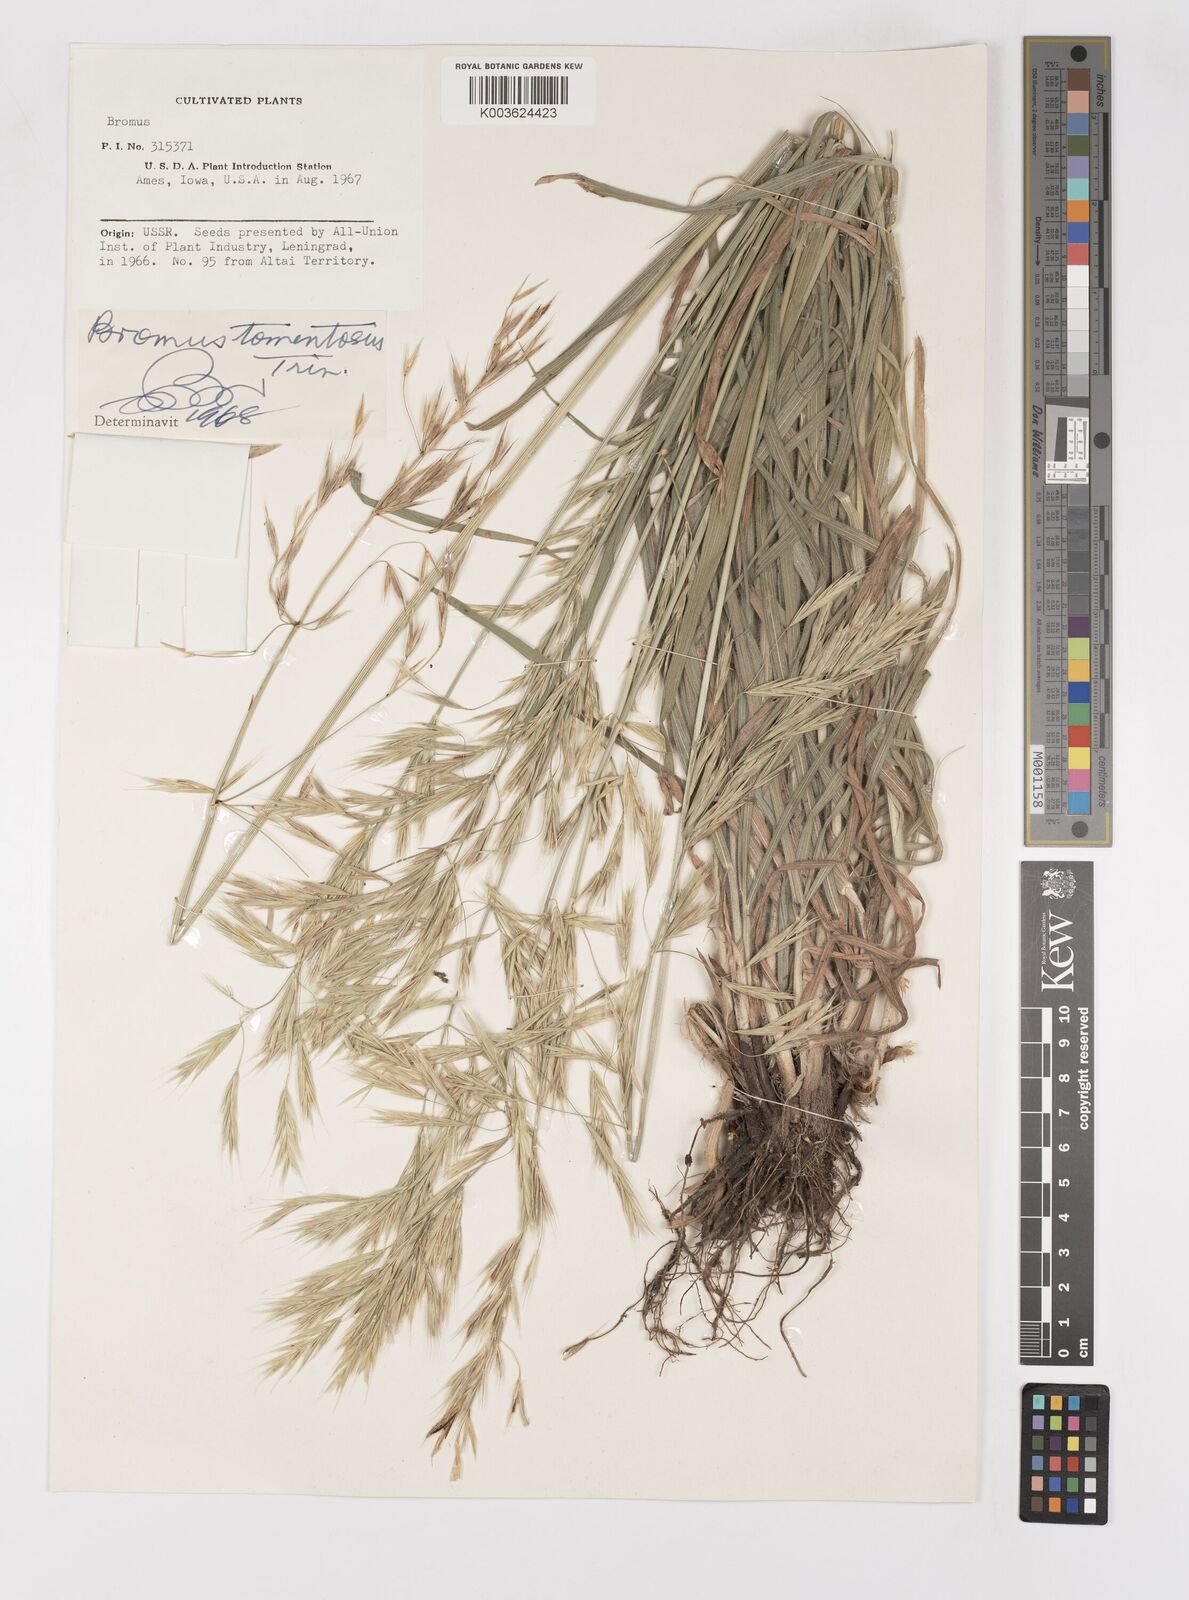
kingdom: Plantae
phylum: Tracheophyta
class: Liliopsida
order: Poales
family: Poaceae
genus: Bromus
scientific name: Bromus tomentellus
